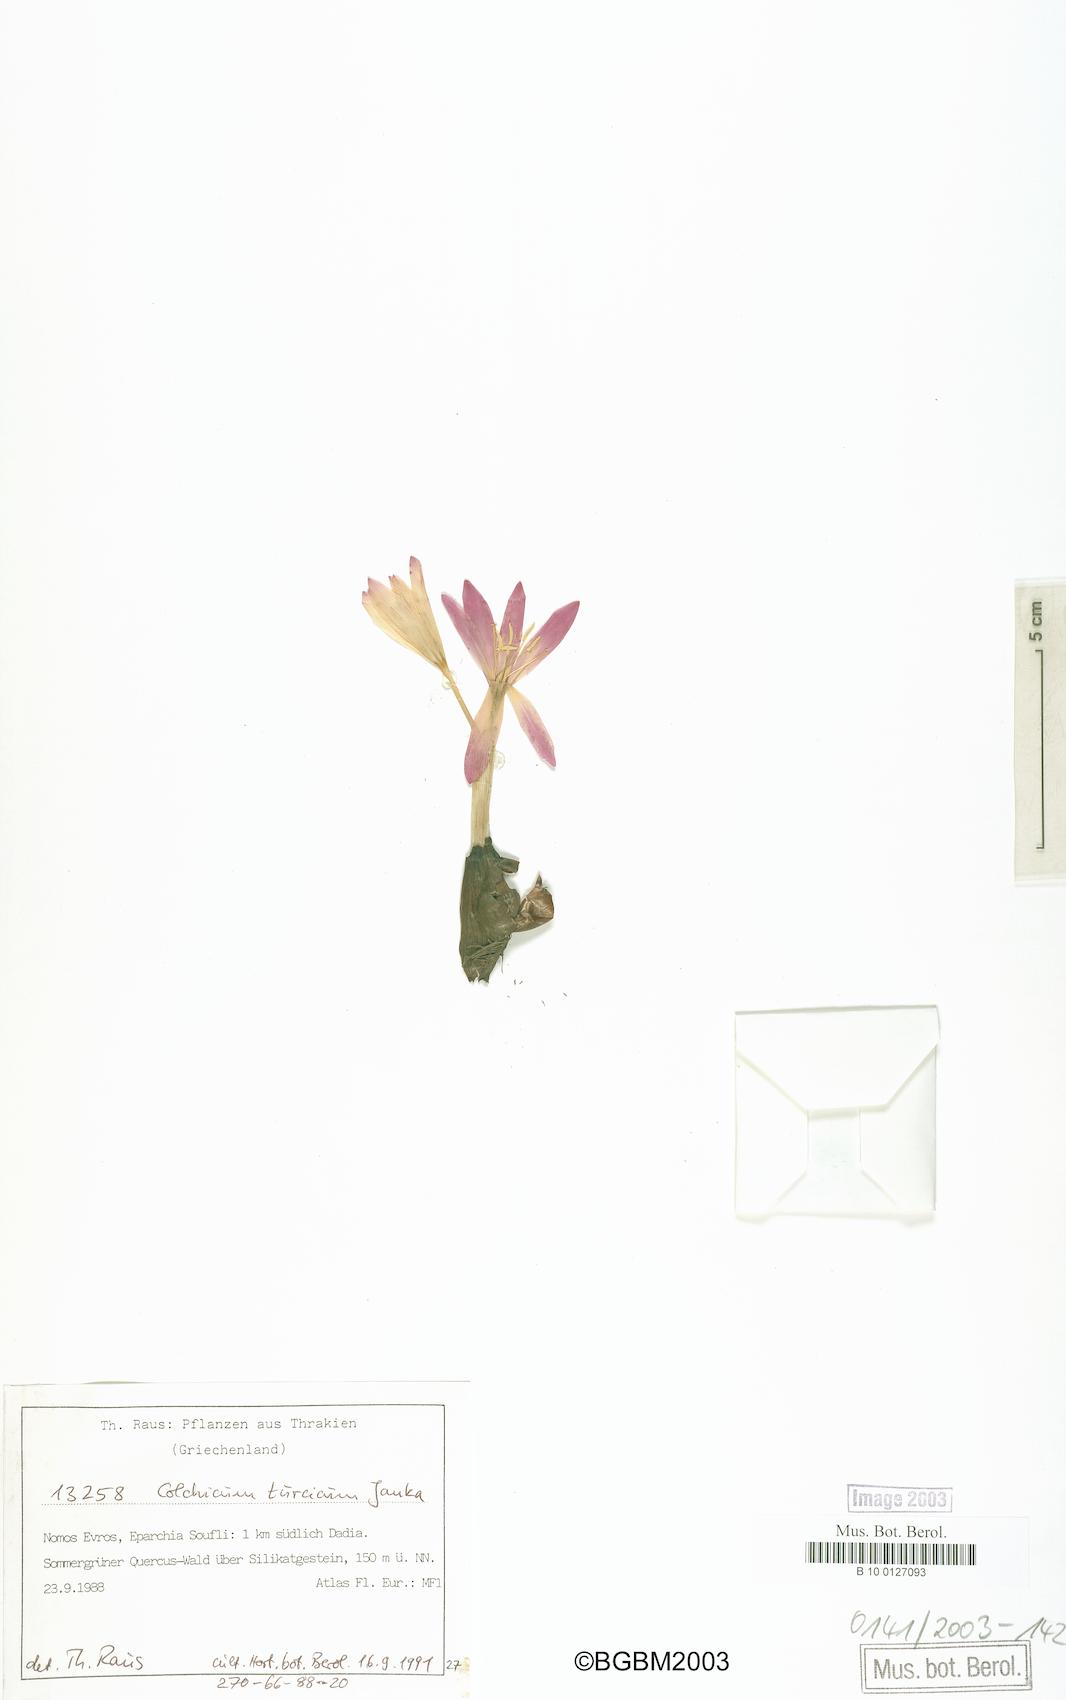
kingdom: Plantae
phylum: Tracheophyta
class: Liliopsida
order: Liliales
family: Colchicaceae
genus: Colchicum
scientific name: Colchicum turcicum
